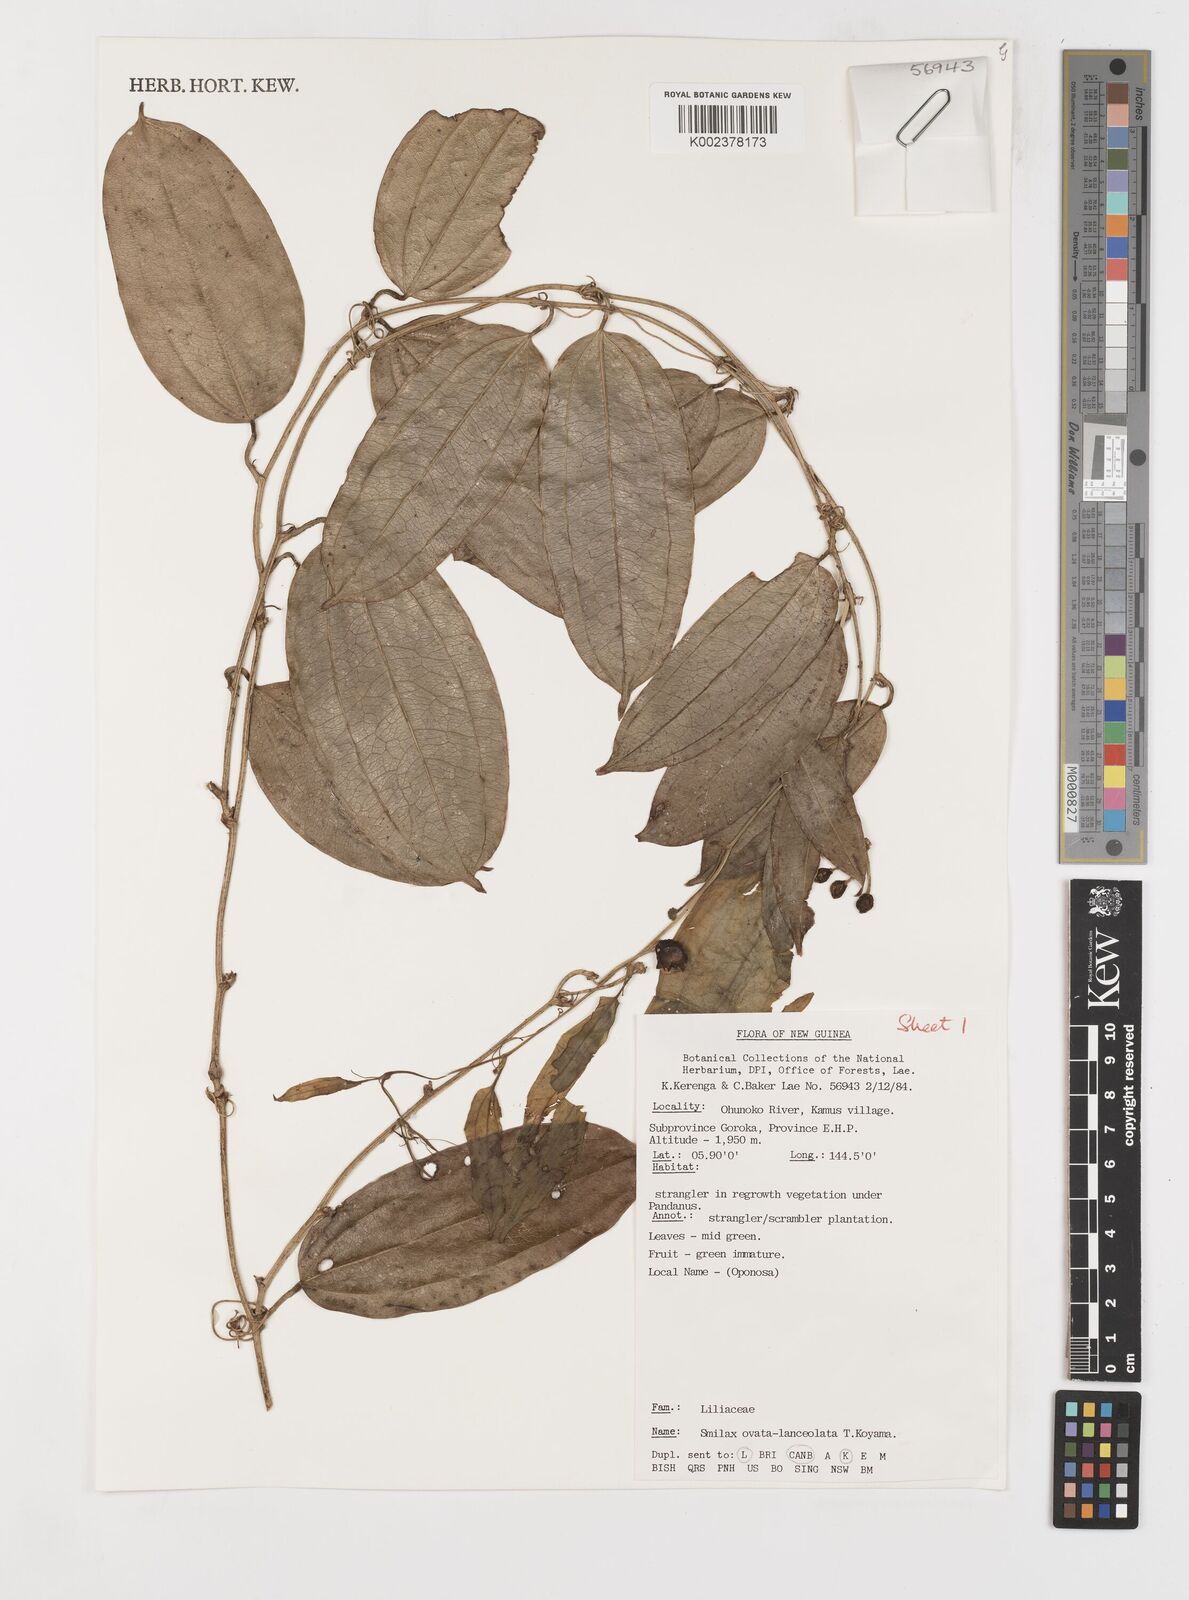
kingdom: Plantae
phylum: Tracheophyta
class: Liliopsida
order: Liliales
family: Smilacaceae
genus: Smilax
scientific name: Smilax ovatolanceolata
